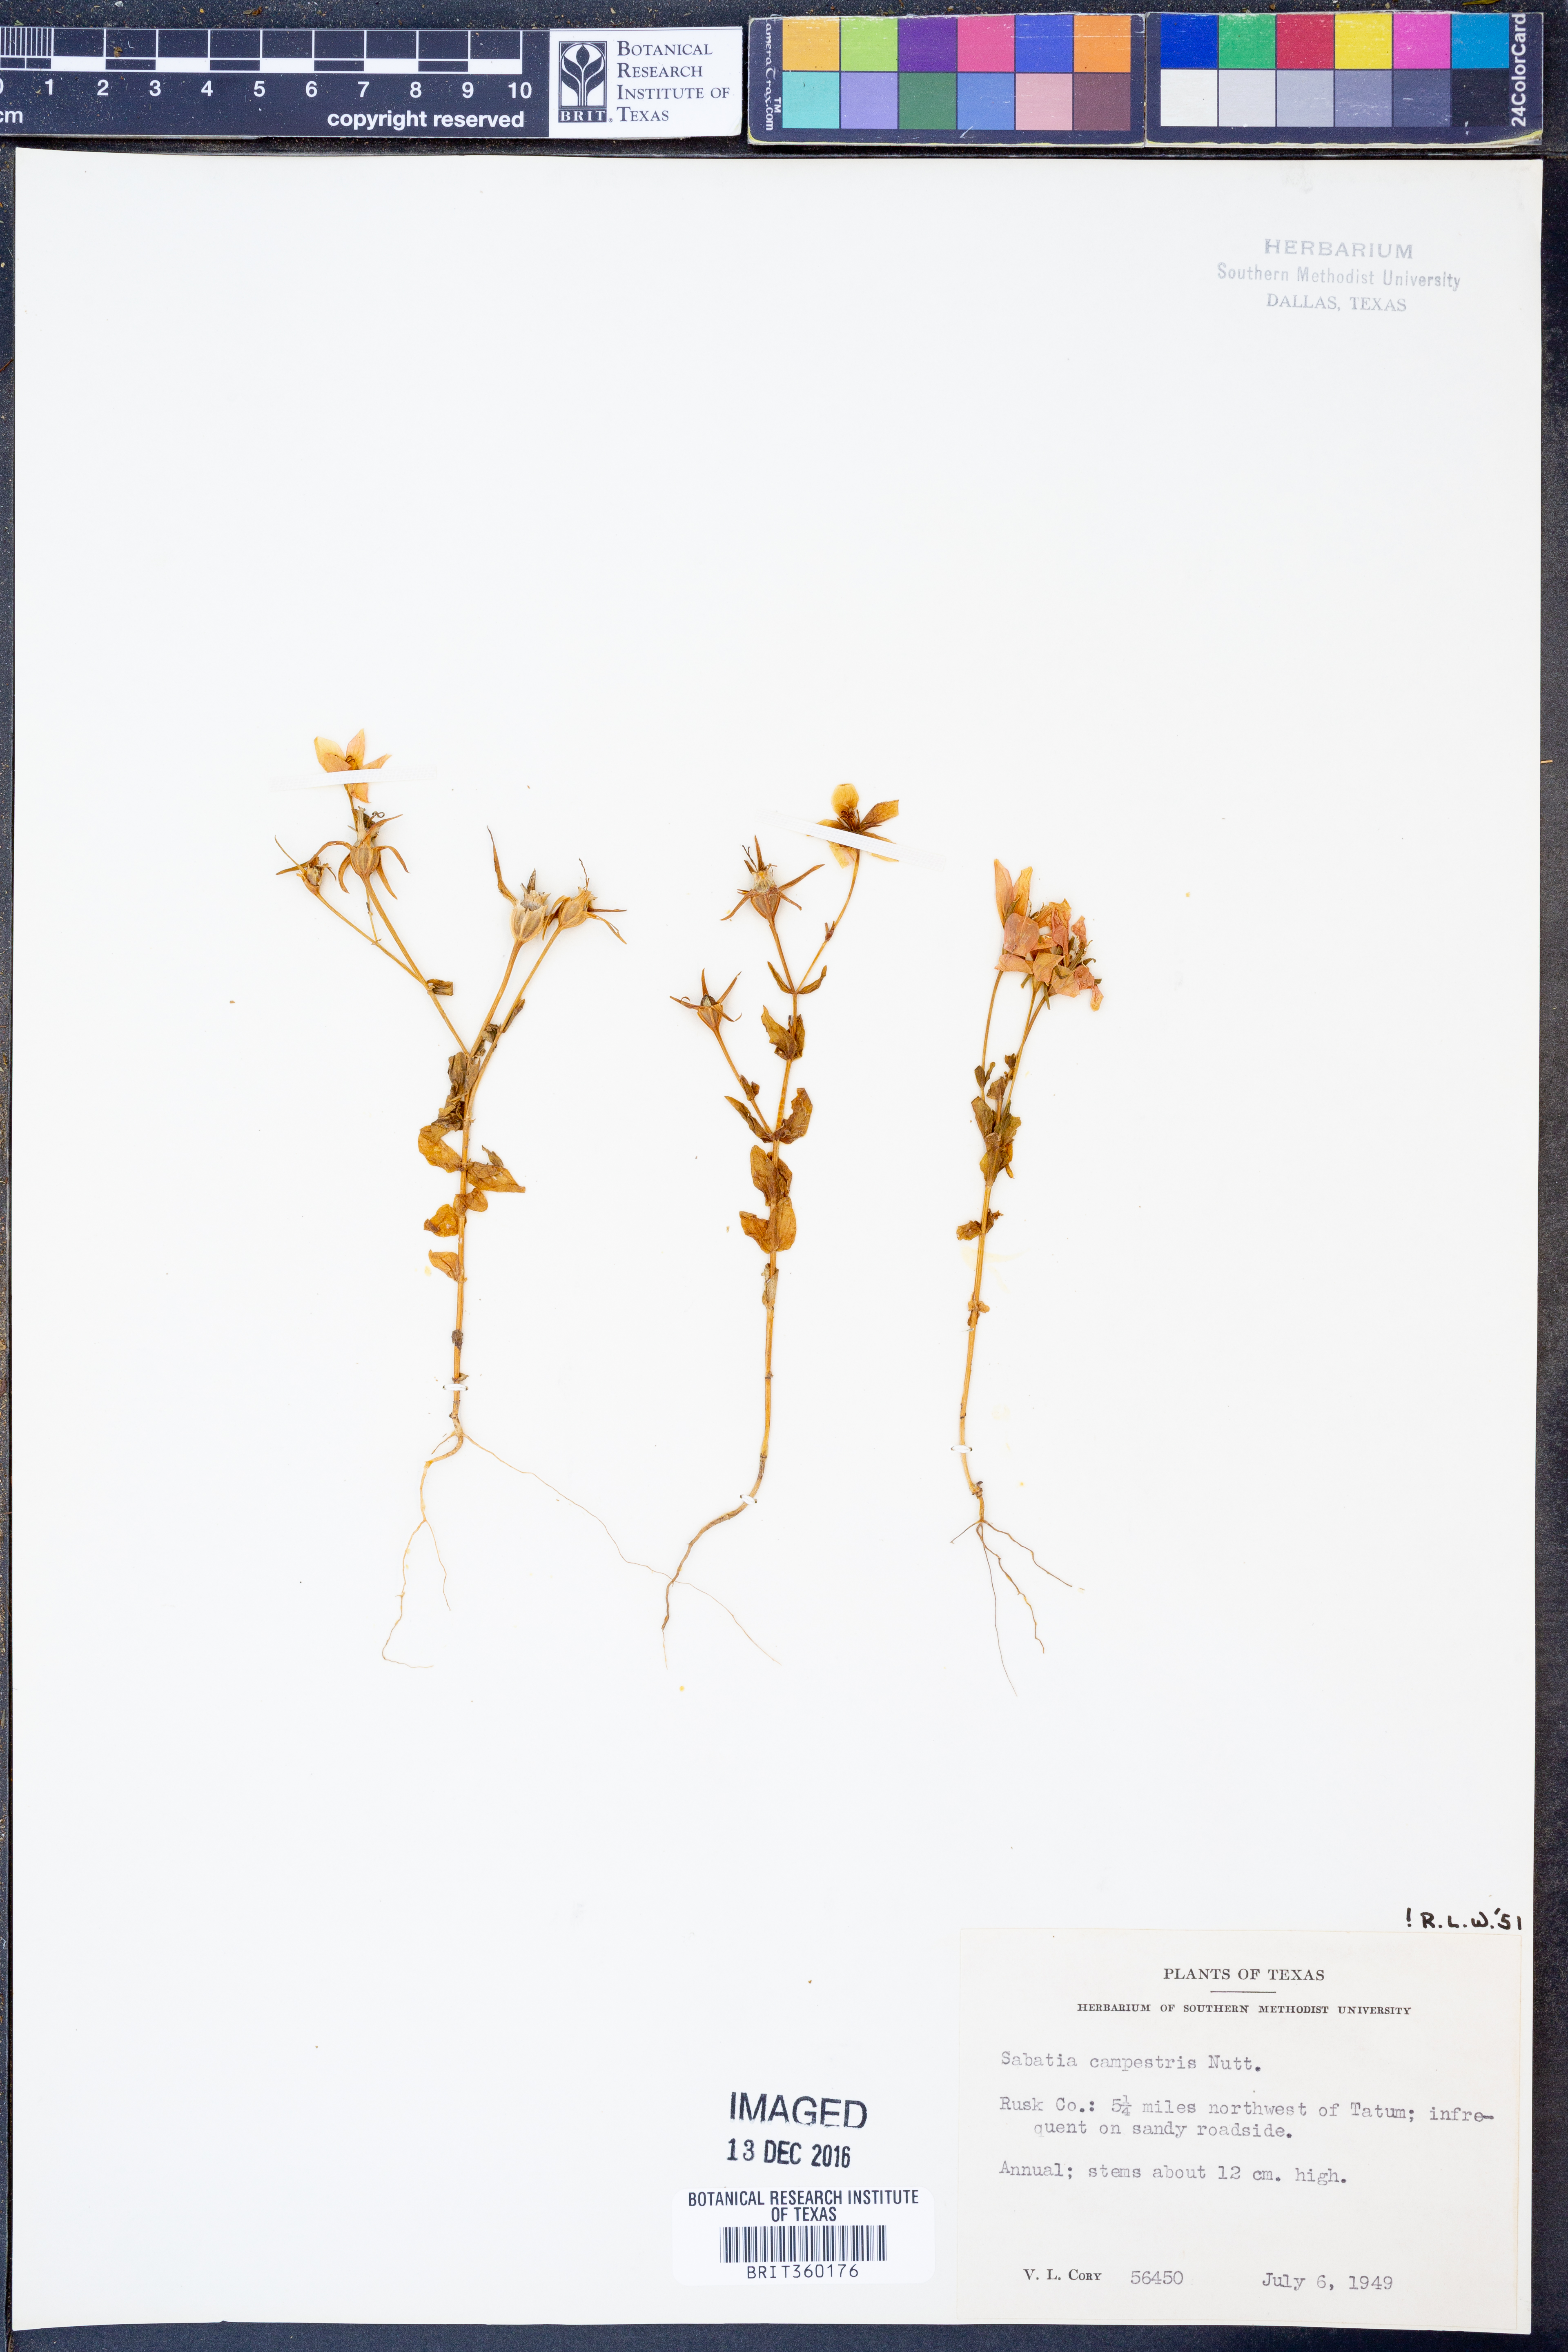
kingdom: Plantae
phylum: Tracheophyta
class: Magnoliopsida
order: Gentianales
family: Gentianaceae
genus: Sabatia
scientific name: Sabatia campestris
